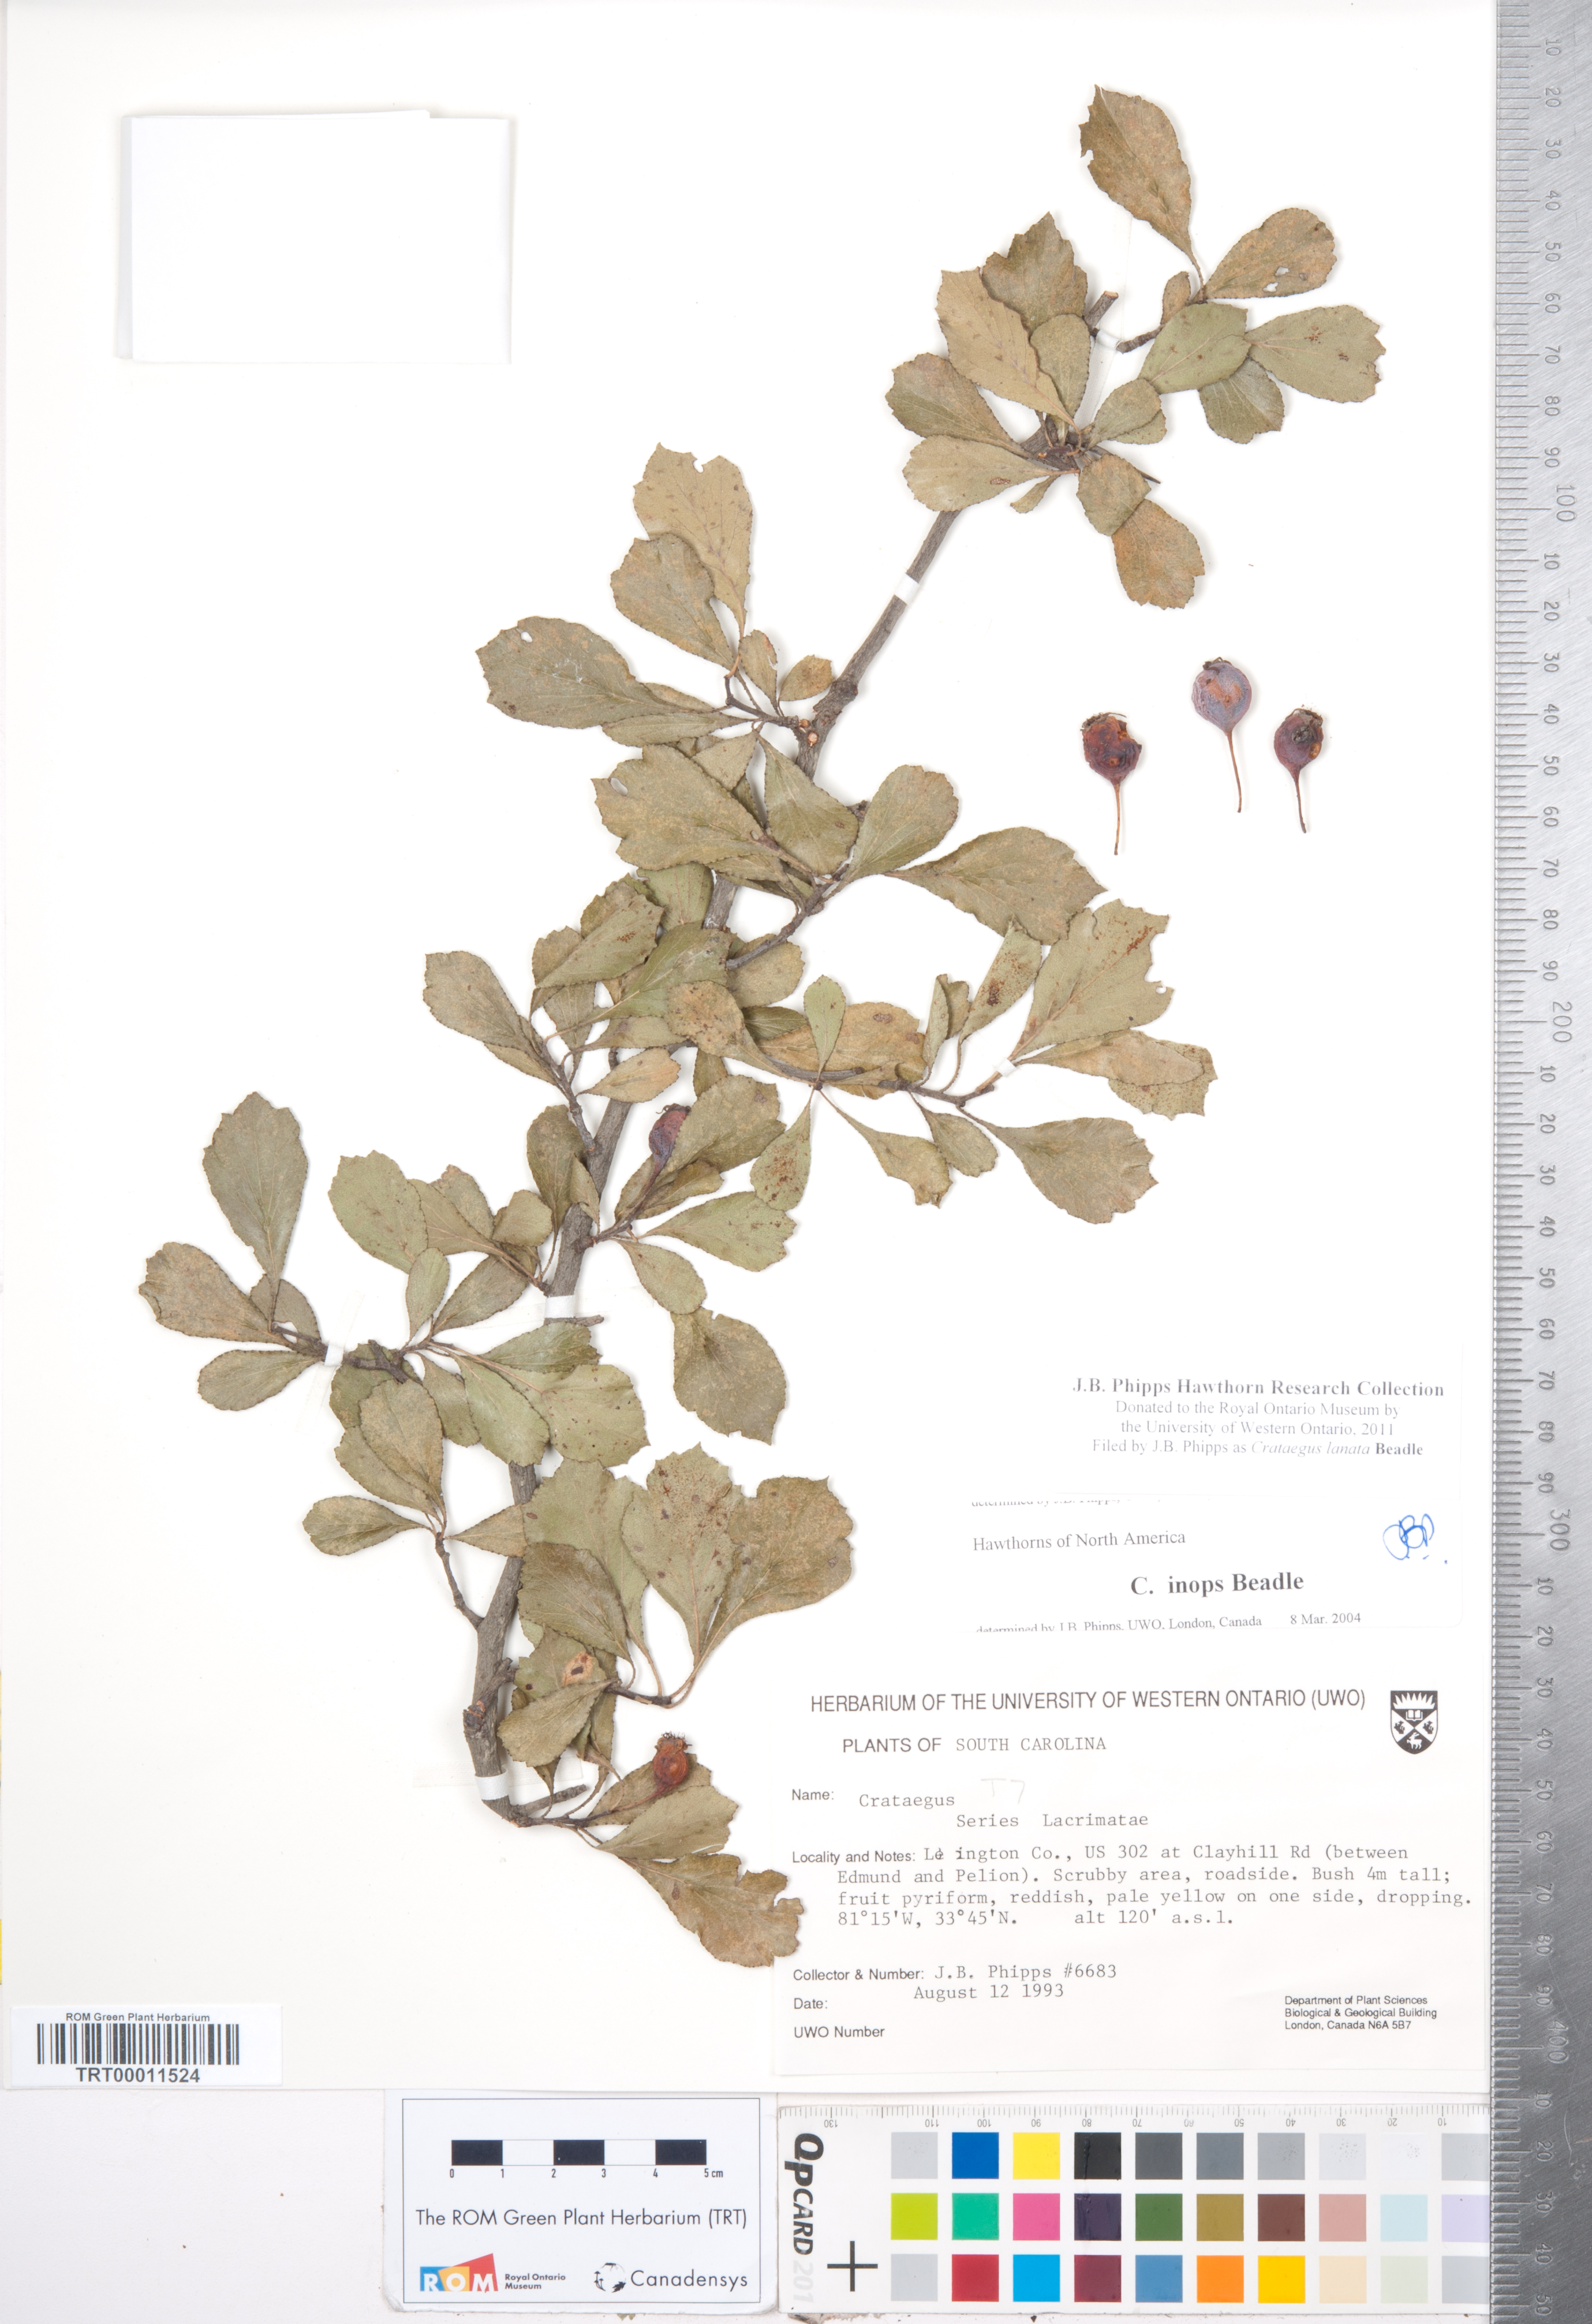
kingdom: Plantae
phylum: Tracheophyta
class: Magnoliopsida
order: Rosales
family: Rosaceae
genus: Crataegus
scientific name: Crataegus lassa
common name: Florida hawthorn
